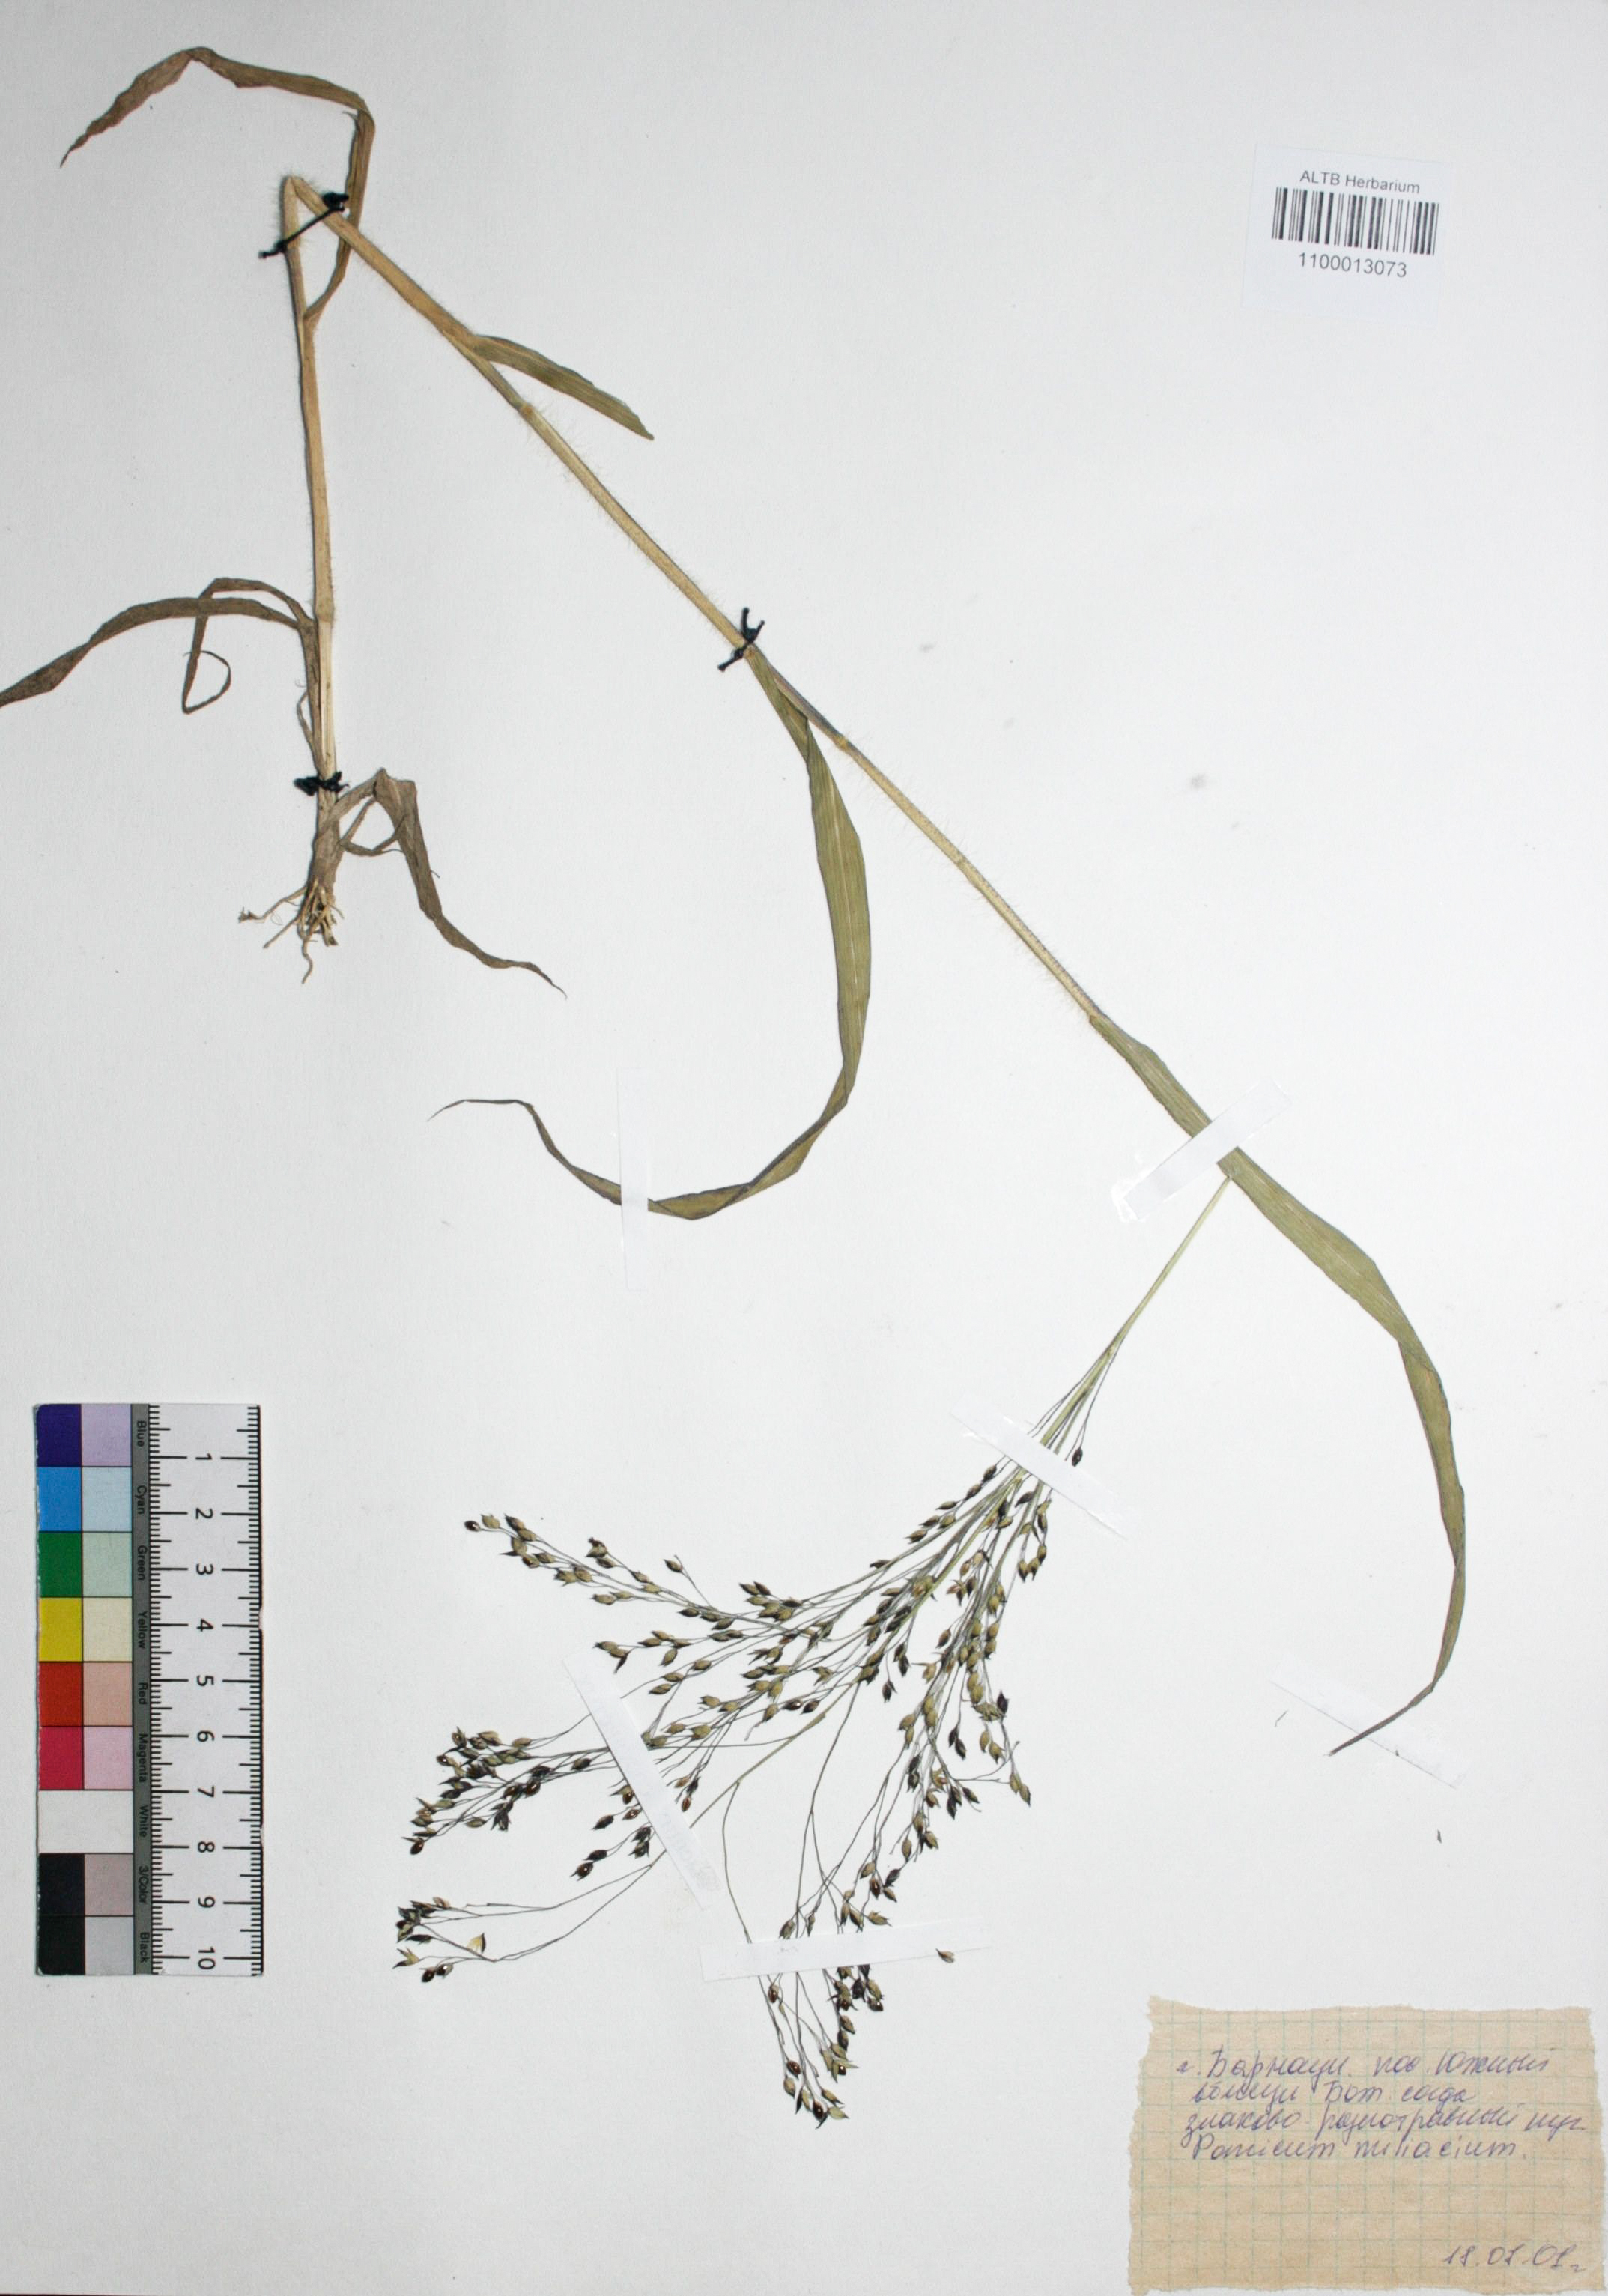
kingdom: Plantae
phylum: Tracheophyta
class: Liliopsida
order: Poales
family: Poaceae
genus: Panicum
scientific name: Panicum miliaceum
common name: Common millet
